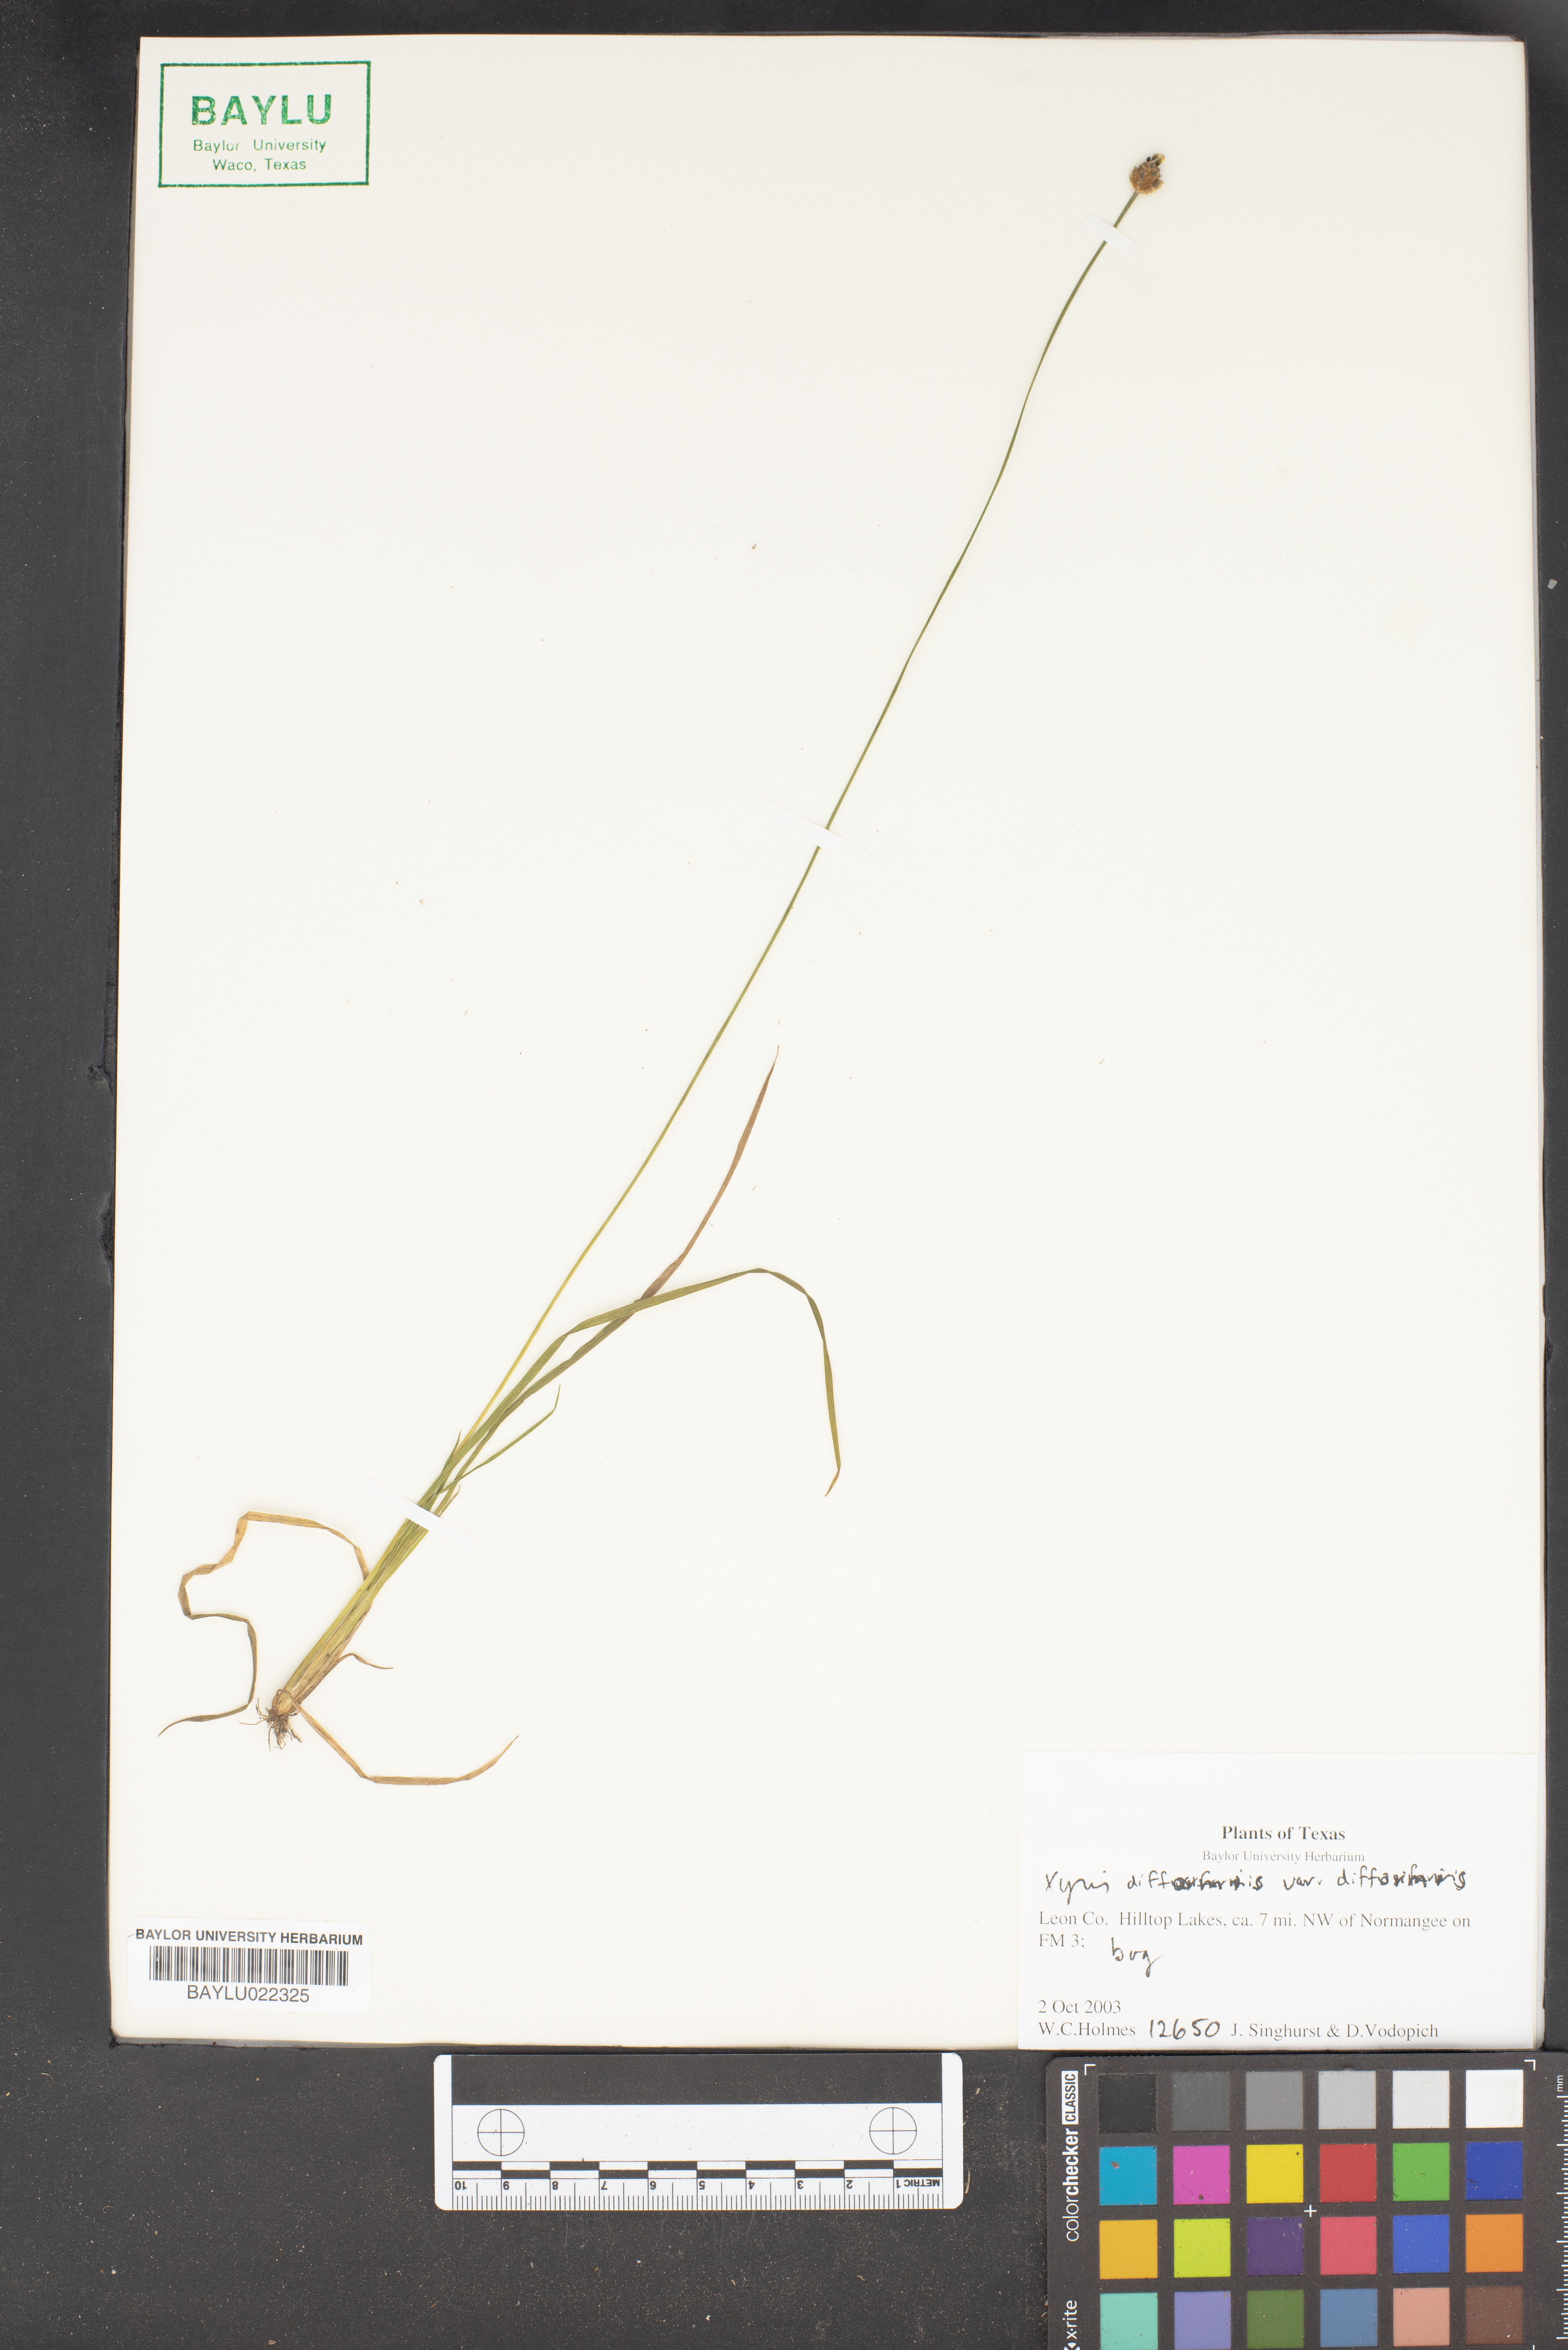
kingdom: Plantae
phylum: Tracheophyta
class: Liliopsida
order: Poales
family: Xyridaceae
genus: Xyris
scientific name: Xyris difformis
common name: Bog yellow-eyed-grass
